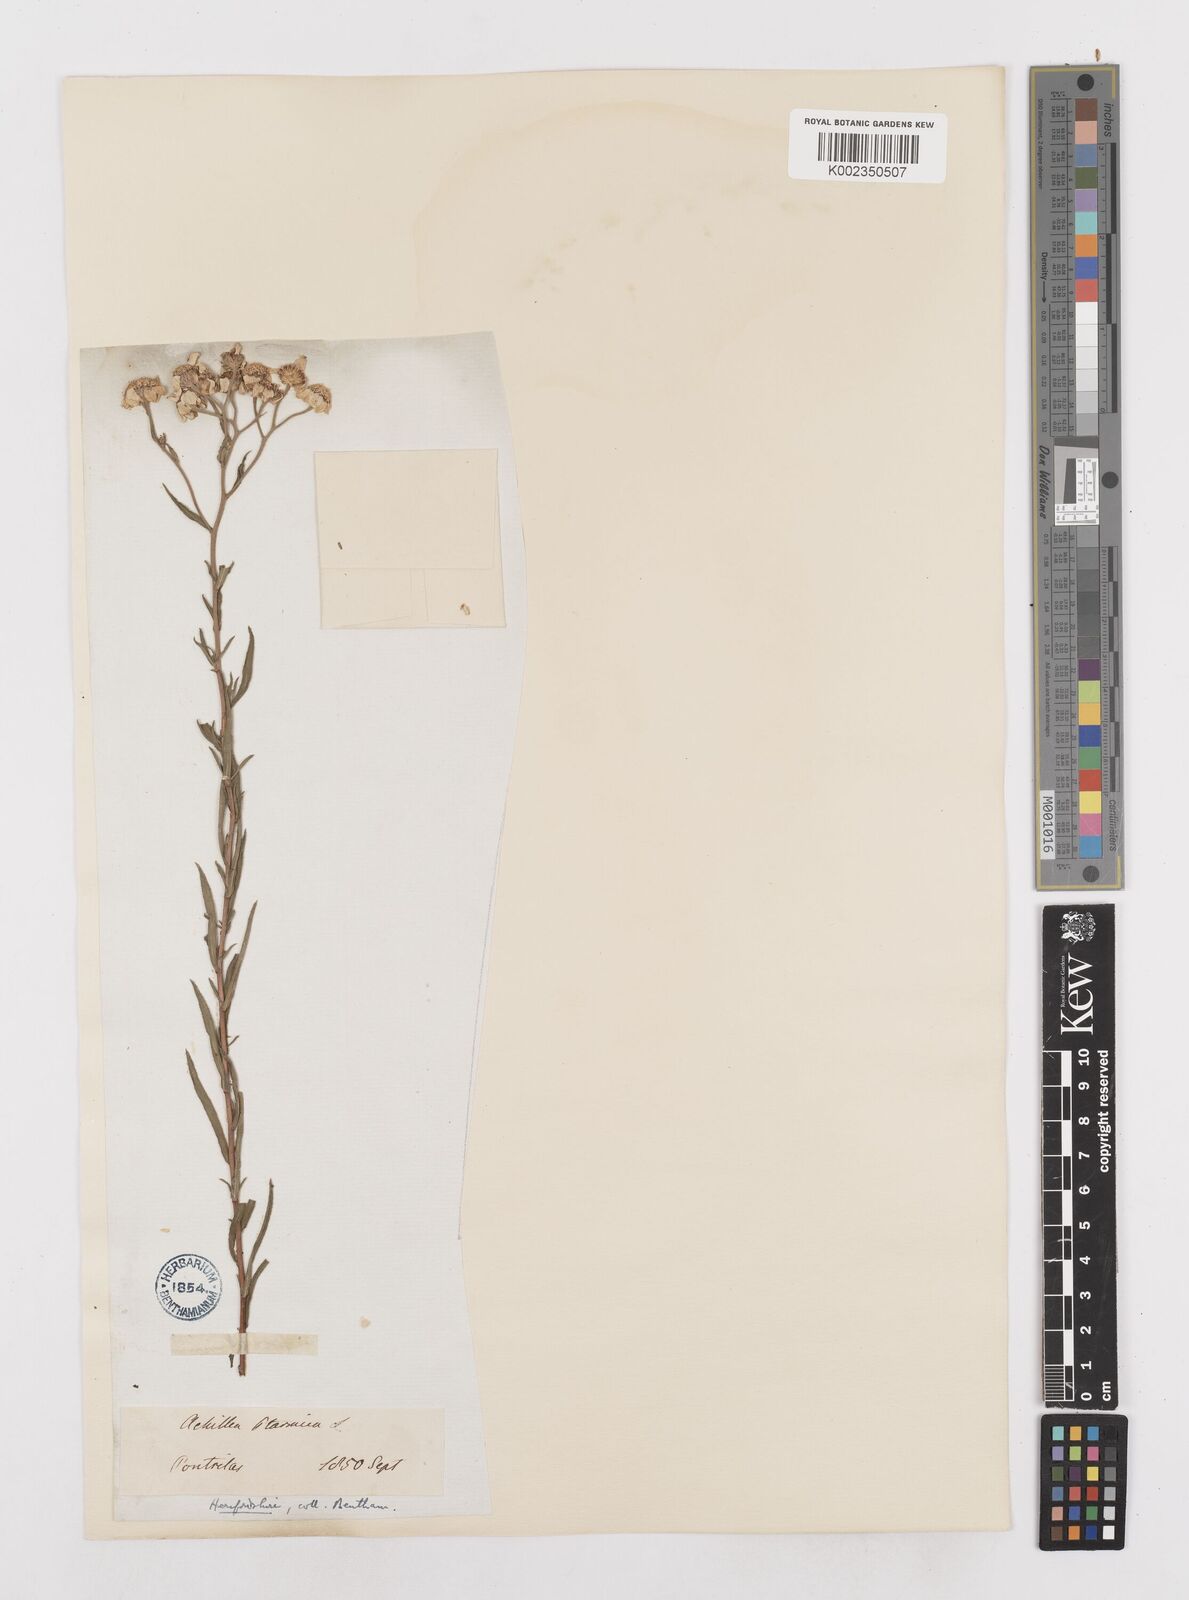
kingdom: Plantae
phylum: Tracheophyta
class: Magnoliopsida
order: Asterales
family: Asteraceae
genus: Achillea
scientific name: Achillea ptarmica
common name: Sneezeweed
